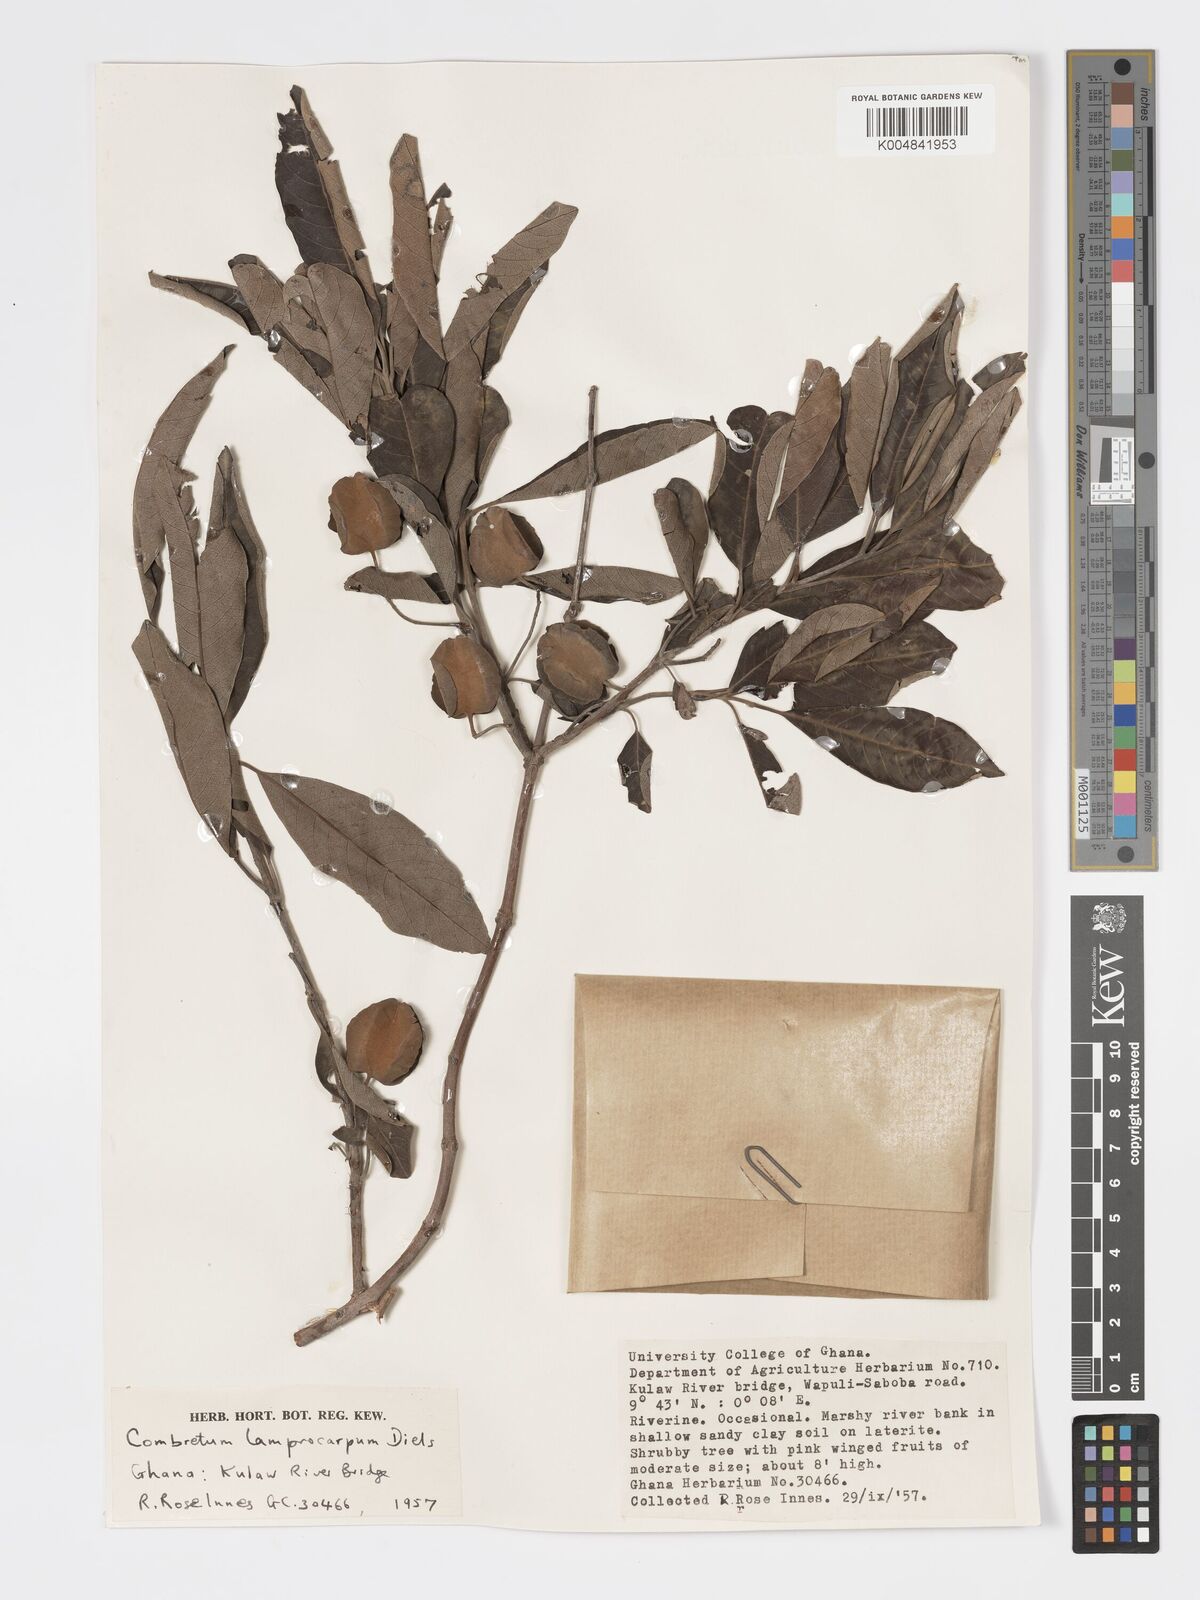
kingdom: Plantae
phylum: Tracheophyta
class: Magnoliopsida
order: Myrtales
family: Combretaceae
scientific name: Combretaceae
